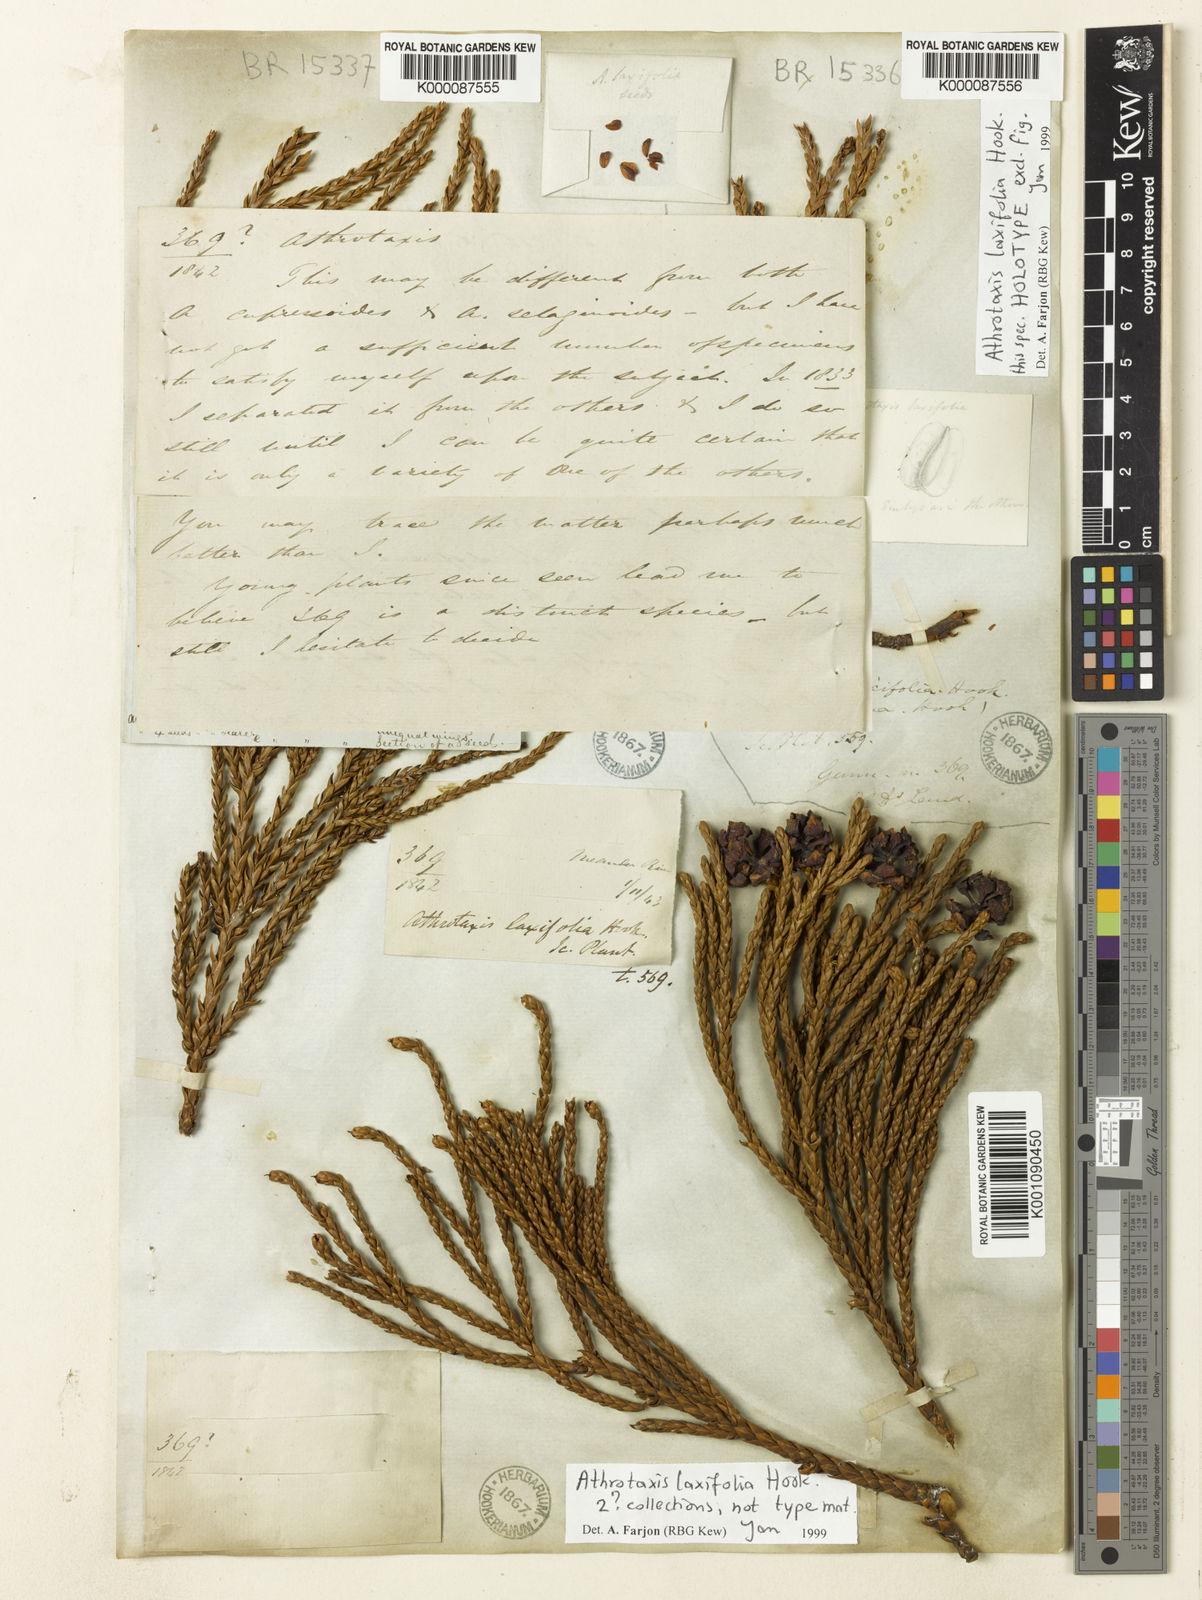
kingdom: Plantae
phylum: Tracheophyta
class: Pinopsida
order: Pinales
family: Cupressaceae
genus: Athrotaxis
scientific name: Athrotaxis laxifolia
